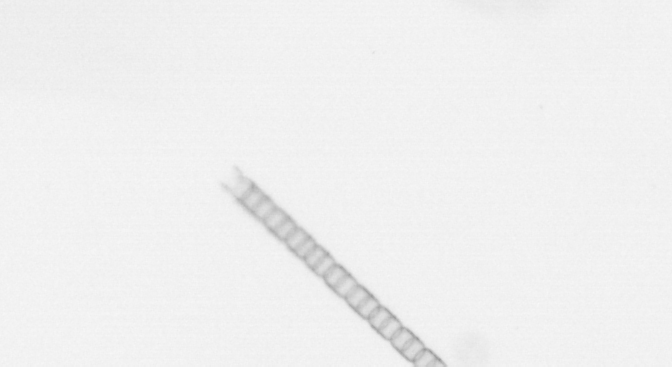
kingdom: Chromista
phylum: Ochrophyta
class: Bacillariophyceae
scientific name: Bacillariophyceae
